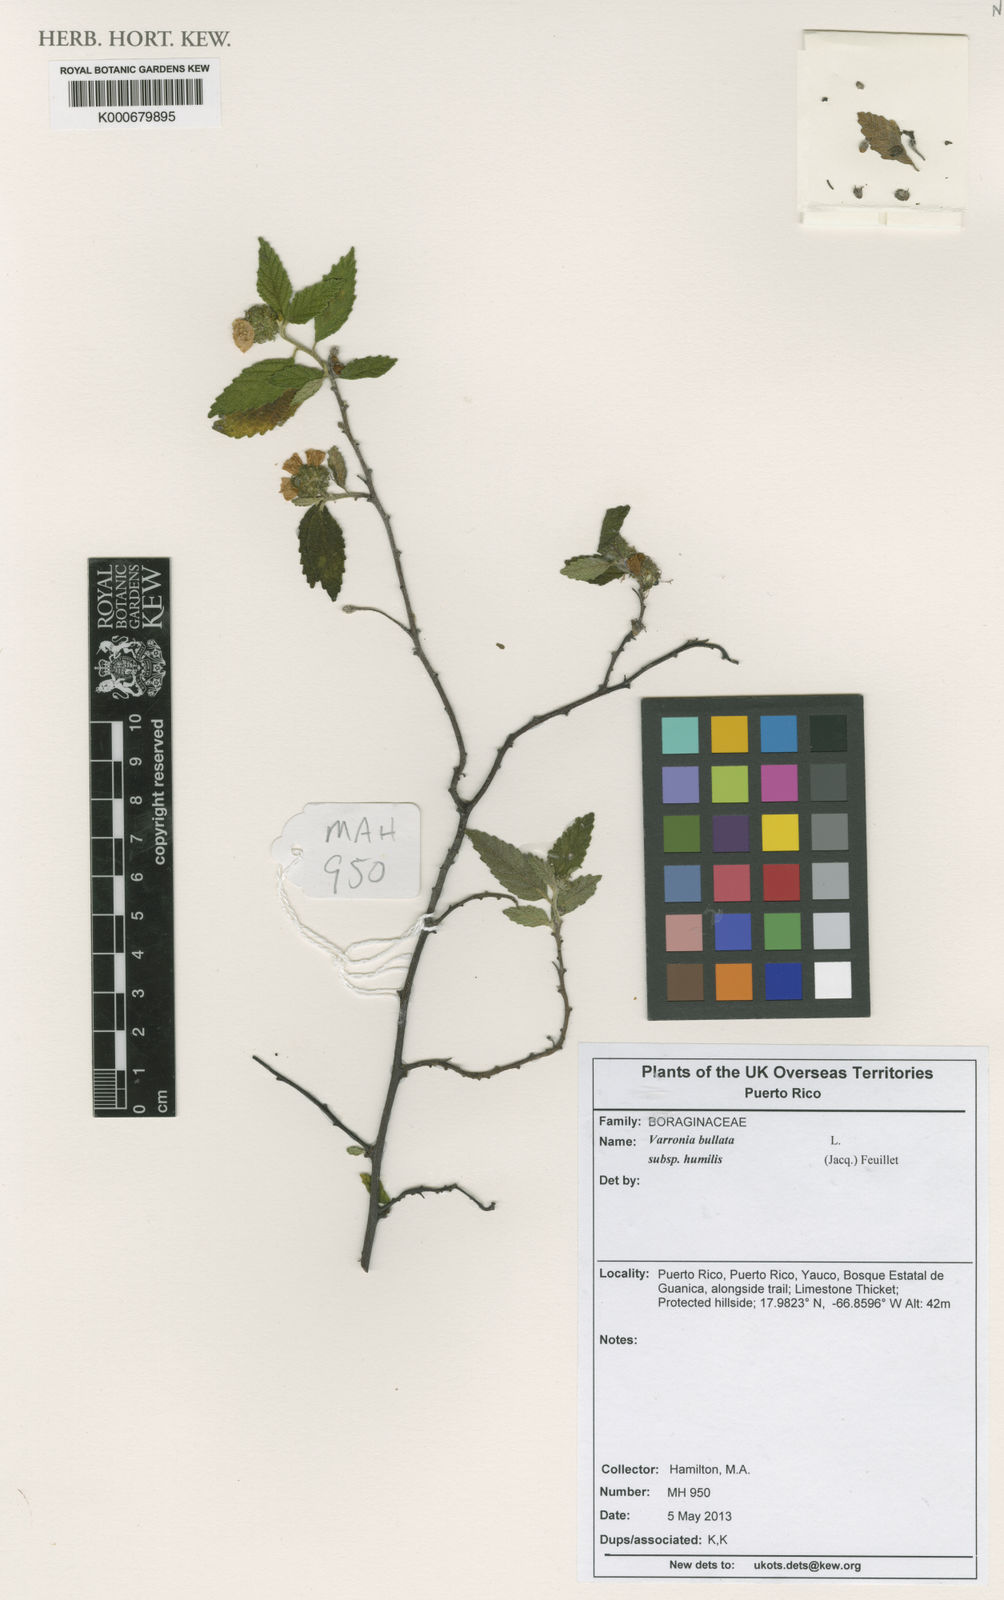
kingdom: Plantae
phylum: Tracheophyta
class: Magnoliopsida
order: Boraginales
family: Cordiaceae
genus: Varronia
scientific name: Varronia bullata
